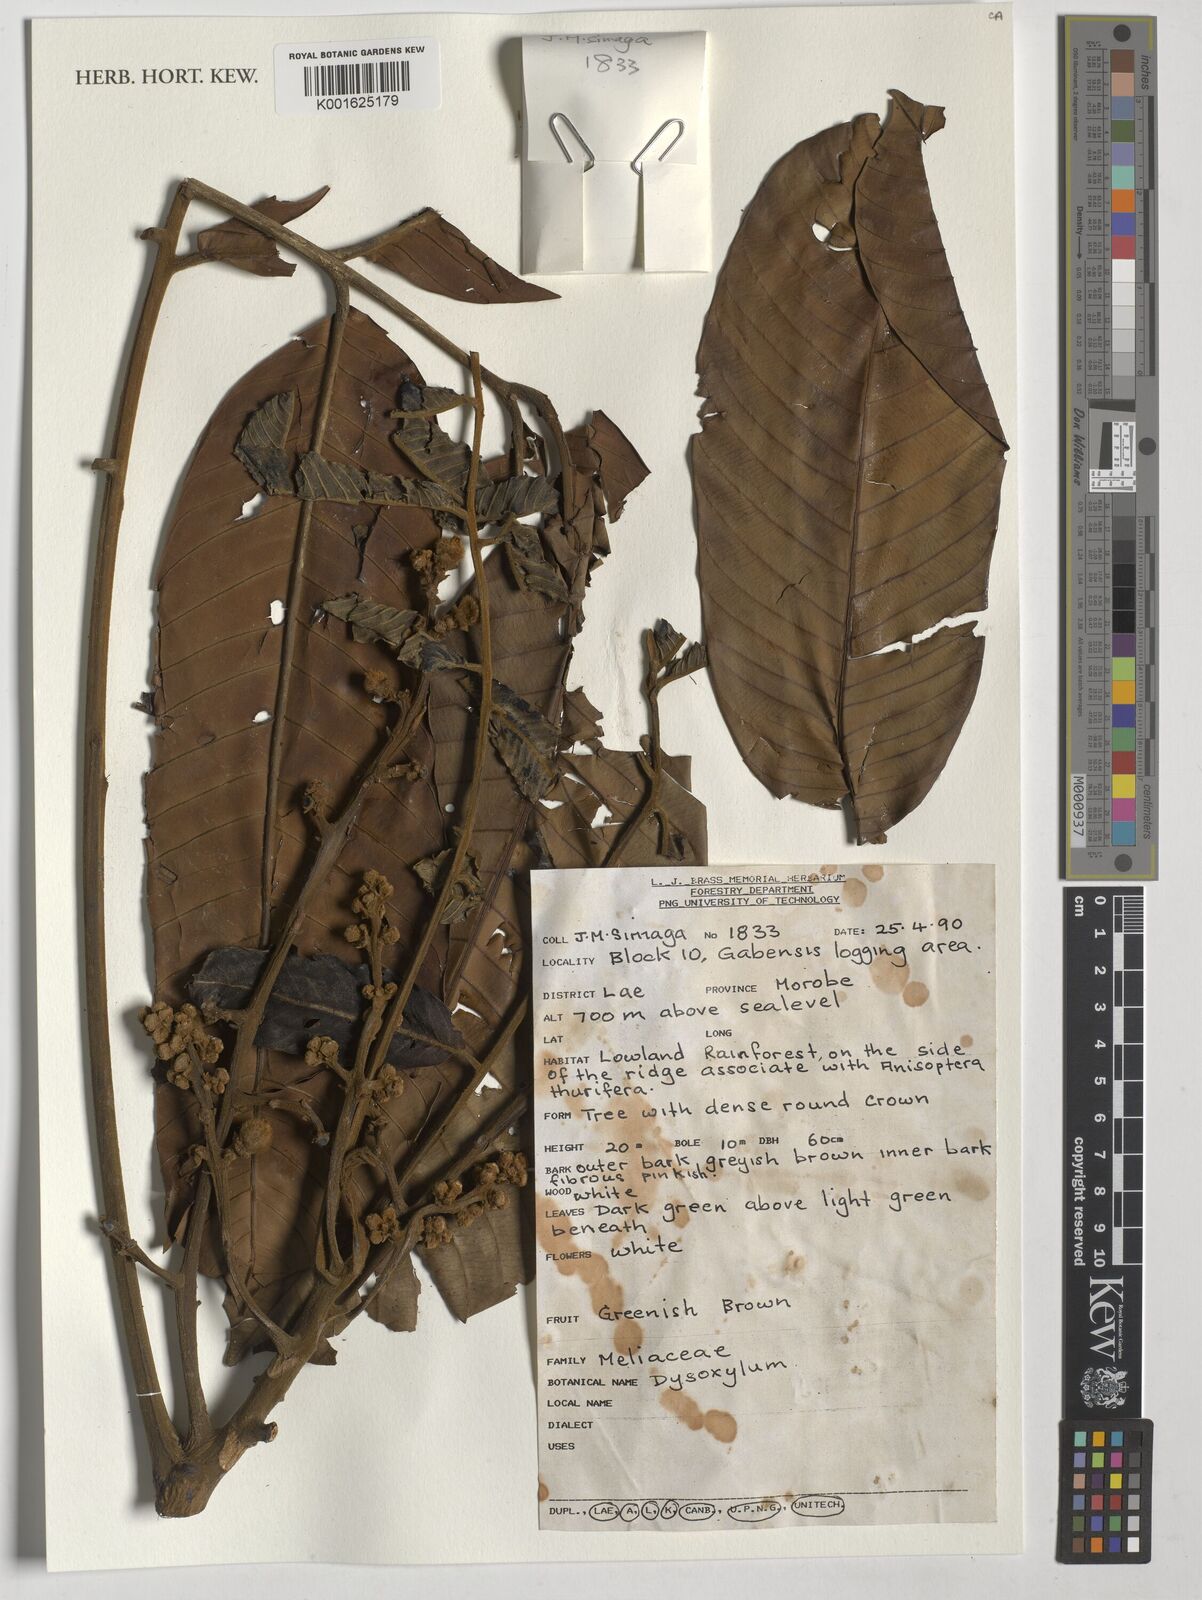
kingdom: Plantae
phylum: Tracheophyta
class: Magnoliopsida
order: Sapindales
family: Meliaceae
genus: Dysoxylum
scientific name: Dysoxylum
